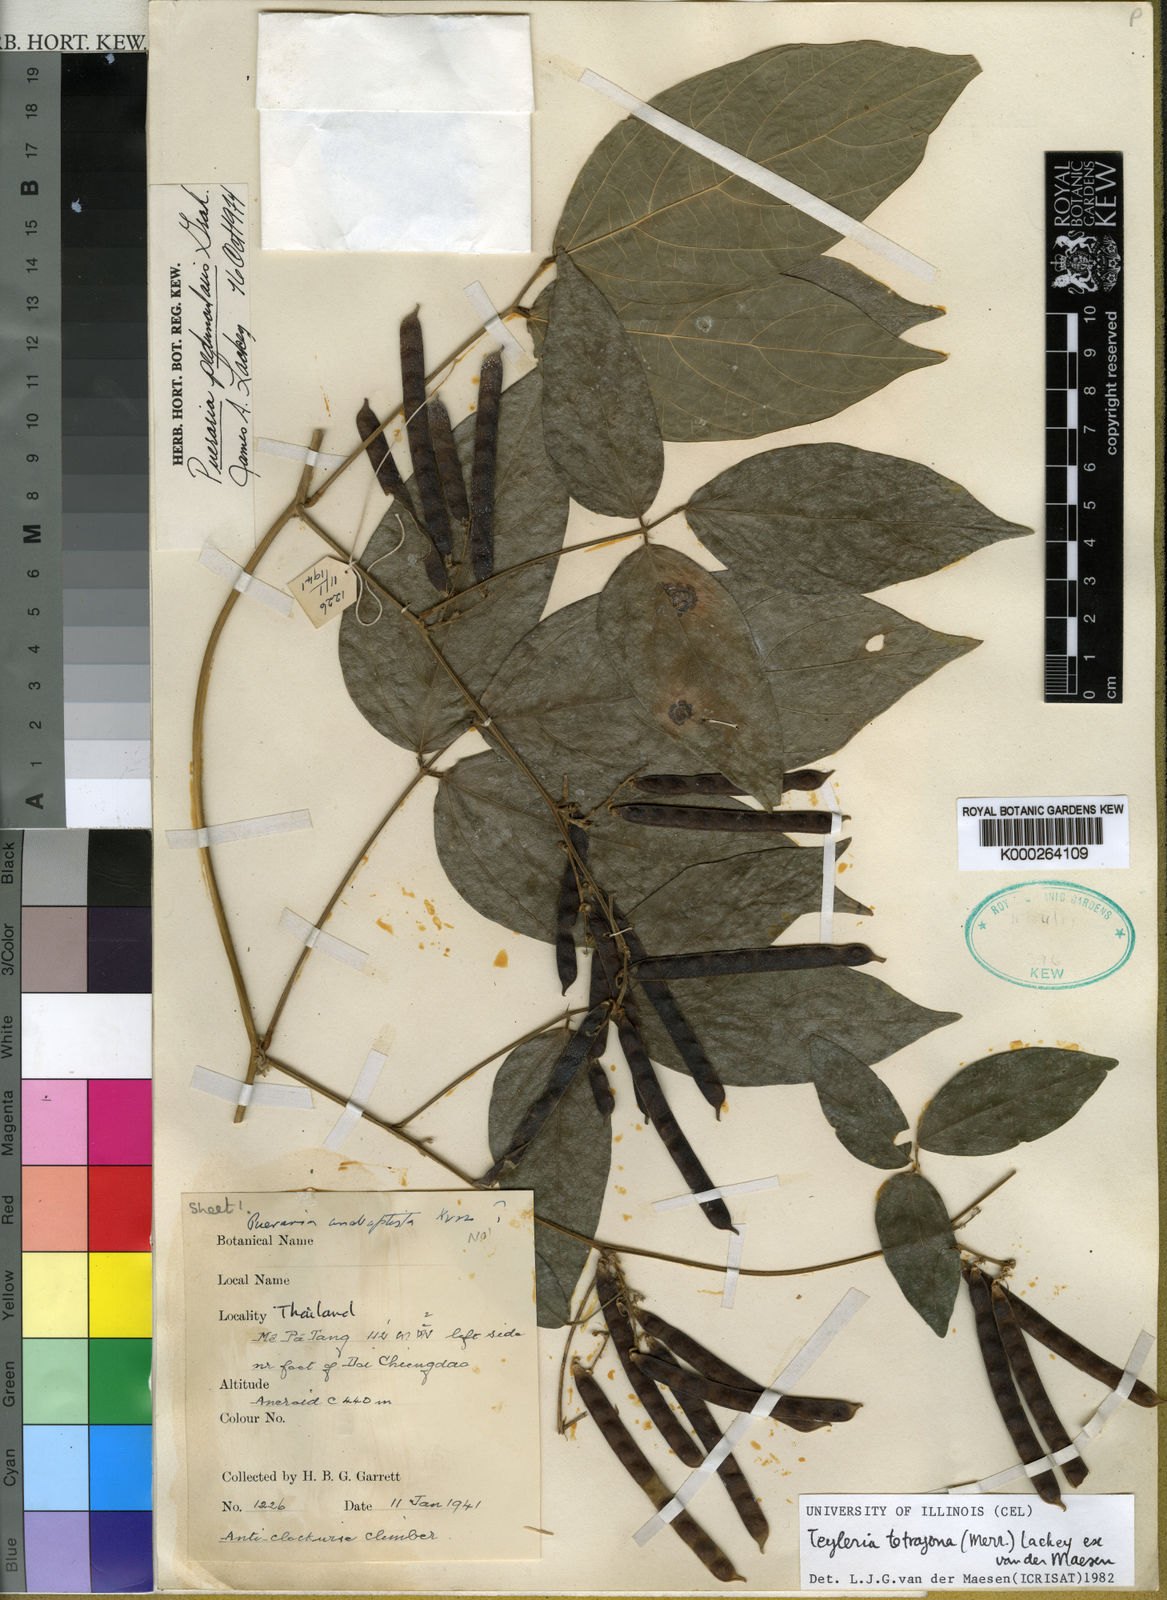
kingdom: Plantae
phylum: Tracheophyta
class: Magnoliopsida
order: Fabales
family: Fabaceae
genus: Toxicopueraria
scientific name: Toxicopueraria peduncularis
